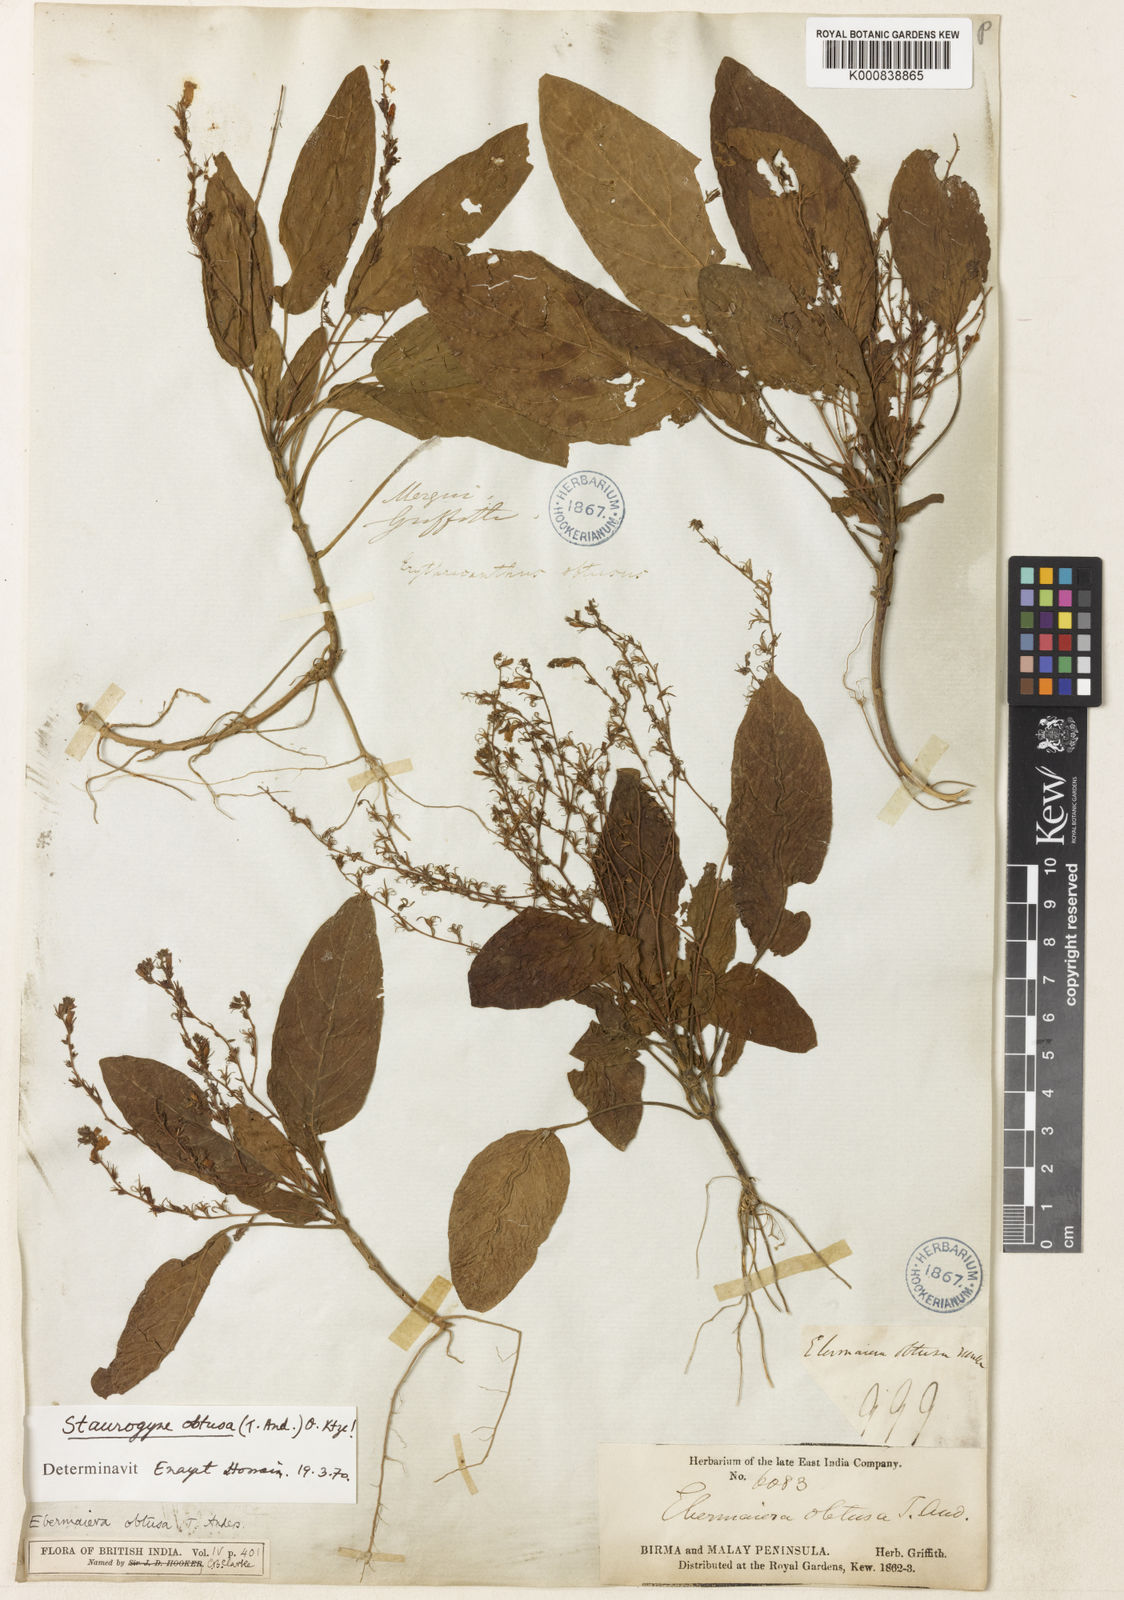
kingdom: Plantae
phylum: Tracheophyta
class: Magnoliopsida
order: Lamiales
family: Acanthaceae
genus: Staurogyne
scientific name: Staurogyne obtusa
